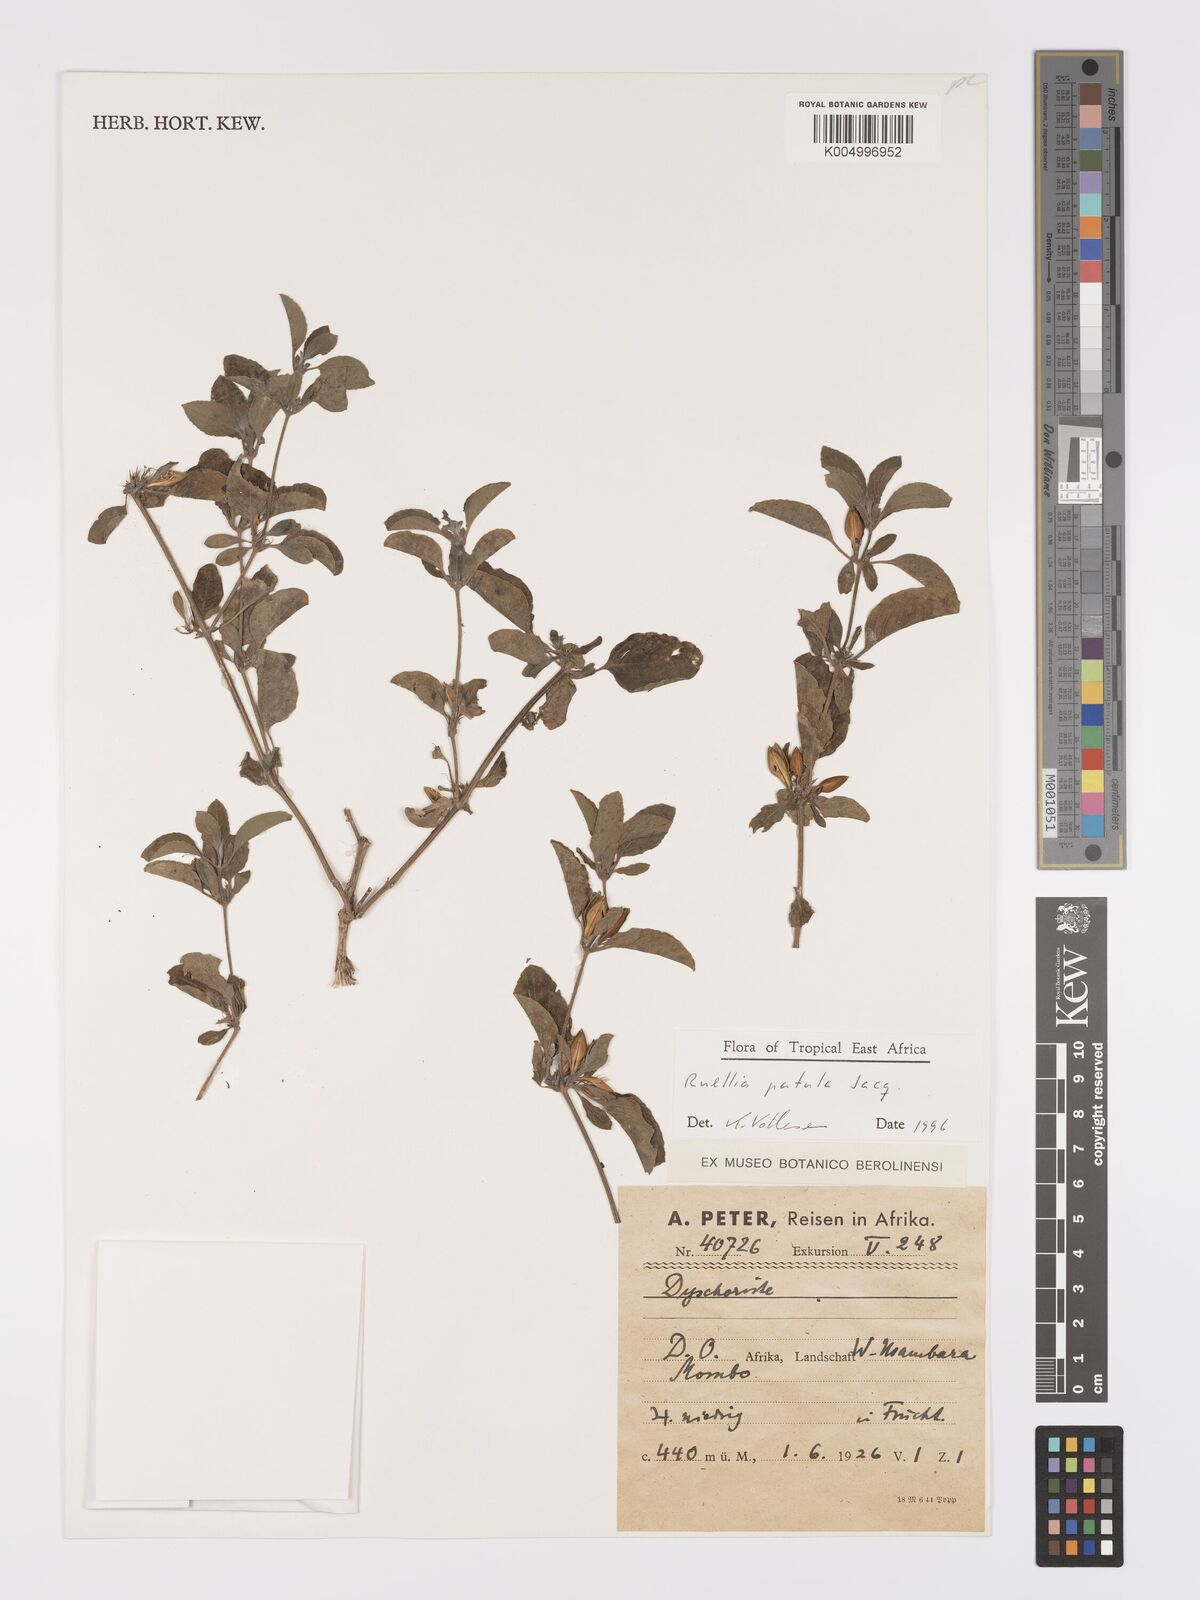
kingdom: Plantae
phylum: Tracheophyta
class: Magnoliopsida
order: Lamiales
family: Acanthaceae
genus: Ruellia
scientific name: Ruellia patula
